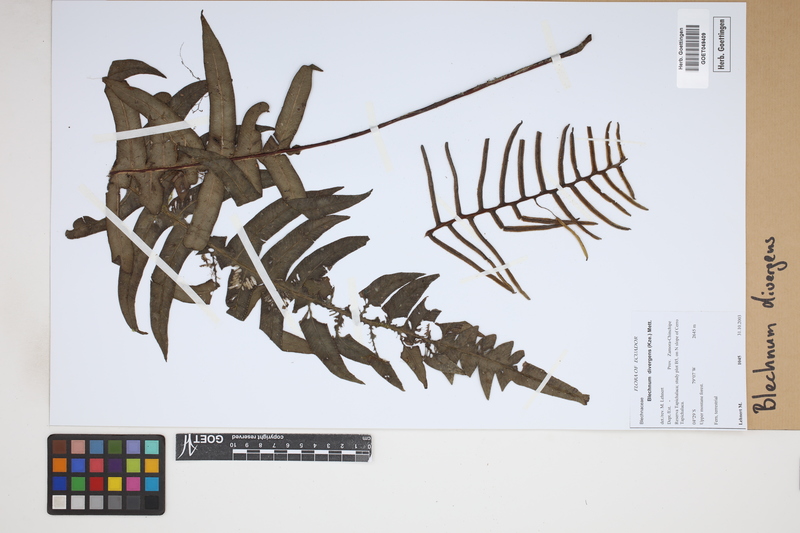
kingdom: Plantae
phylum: Tracheophyta
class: Polypodiopsida
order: Polypodiales
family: Blechnaceae
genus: Austroblechnum
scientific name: Austroblechnum divergens
